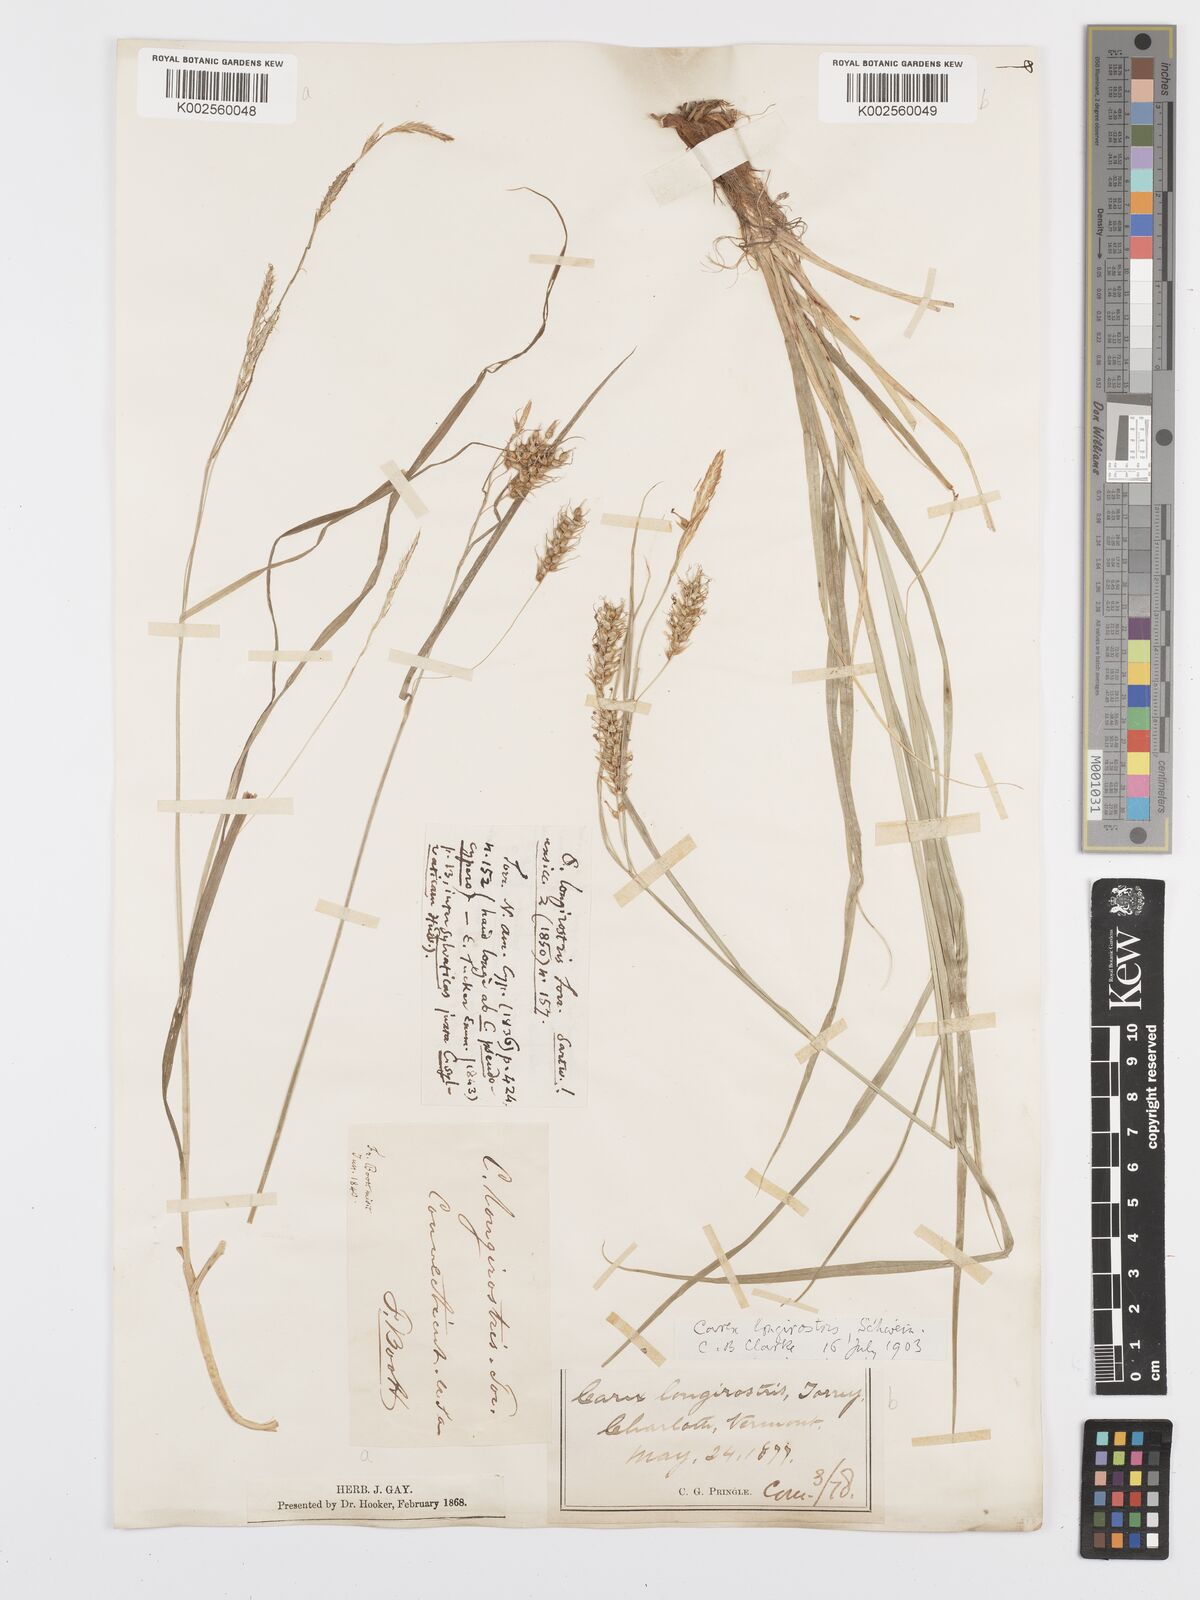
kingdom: Plantae
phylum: Tracheophyta
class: Liliopsida
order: Poales
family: Cyperaceae
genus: Carex
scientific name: Carex sprengelii
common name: Long-beaked sedge
